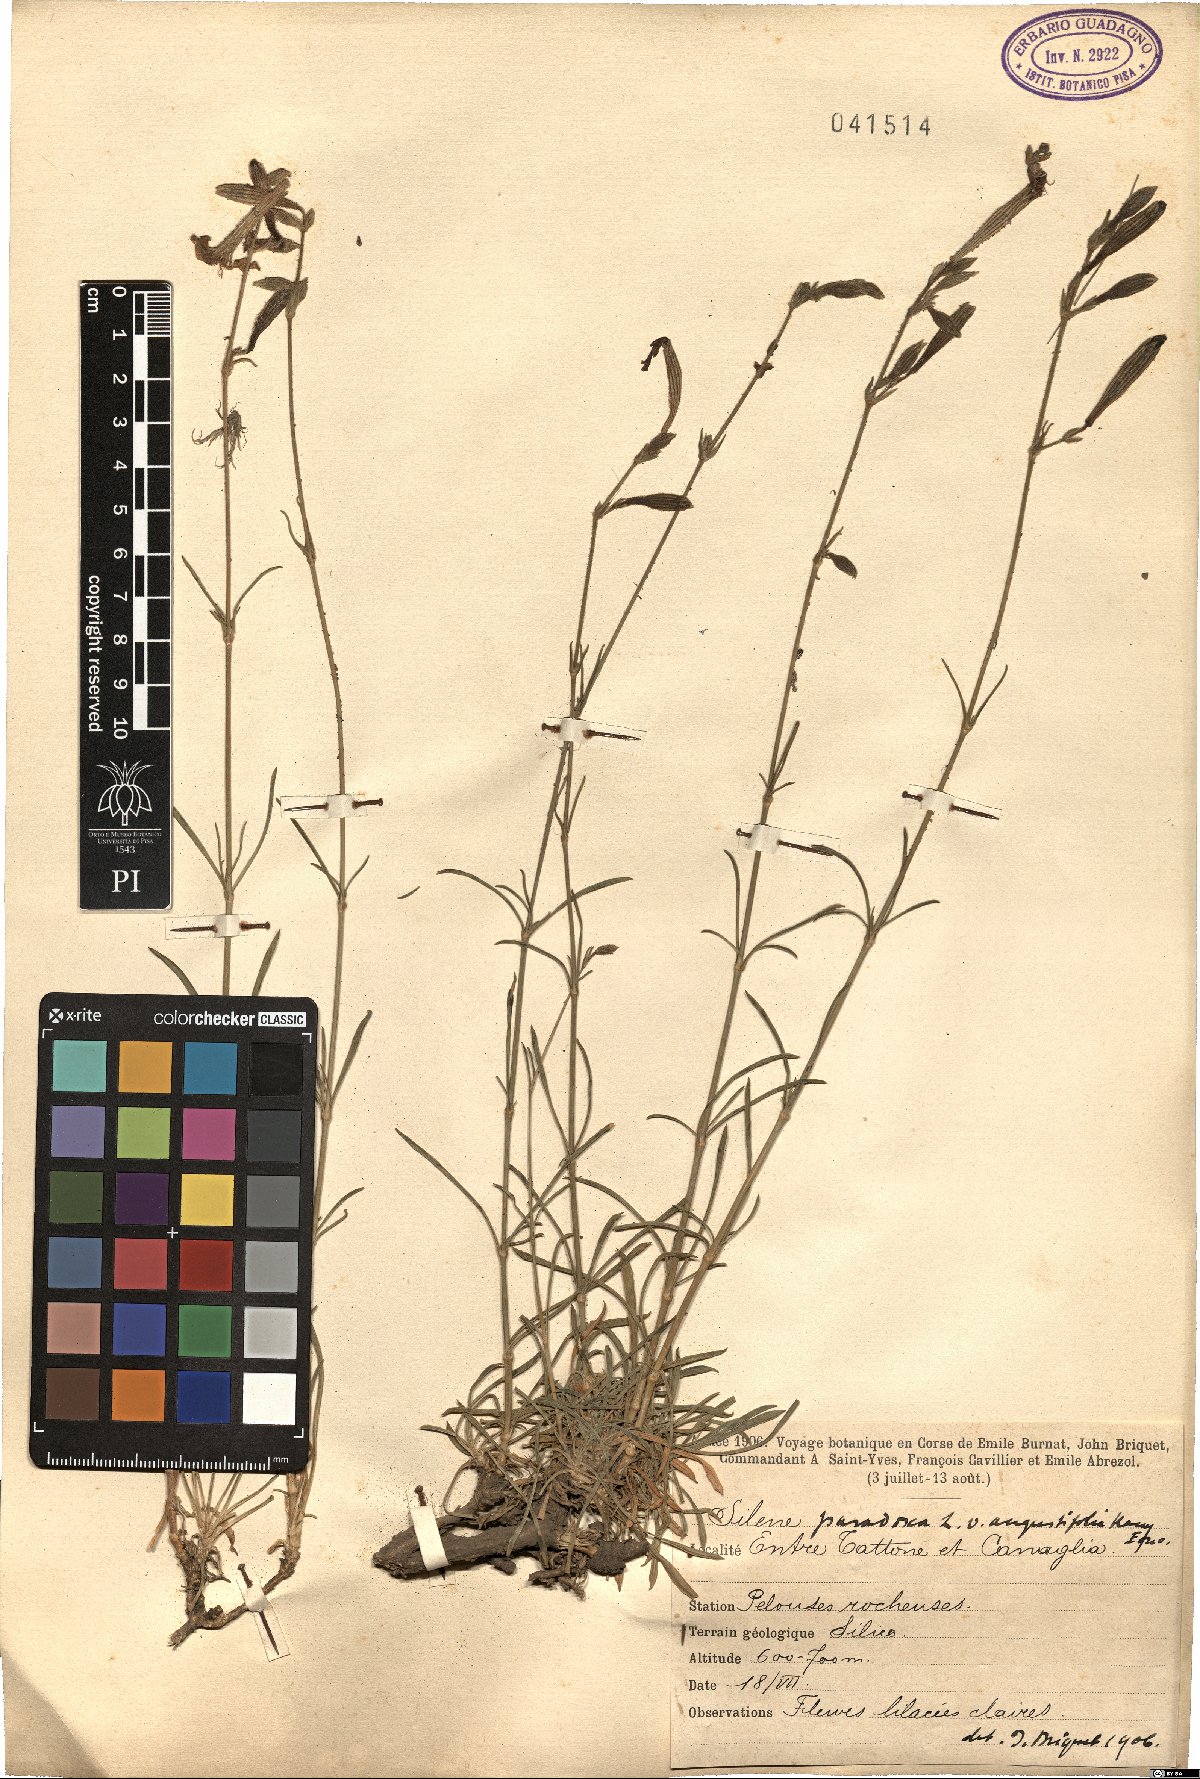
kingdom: Plantae
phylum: Tracheophyta
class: Magnoliopsida
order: Caryophyllales
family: Caryophyllaceae
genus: Silene
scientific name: Silene paradoxa
